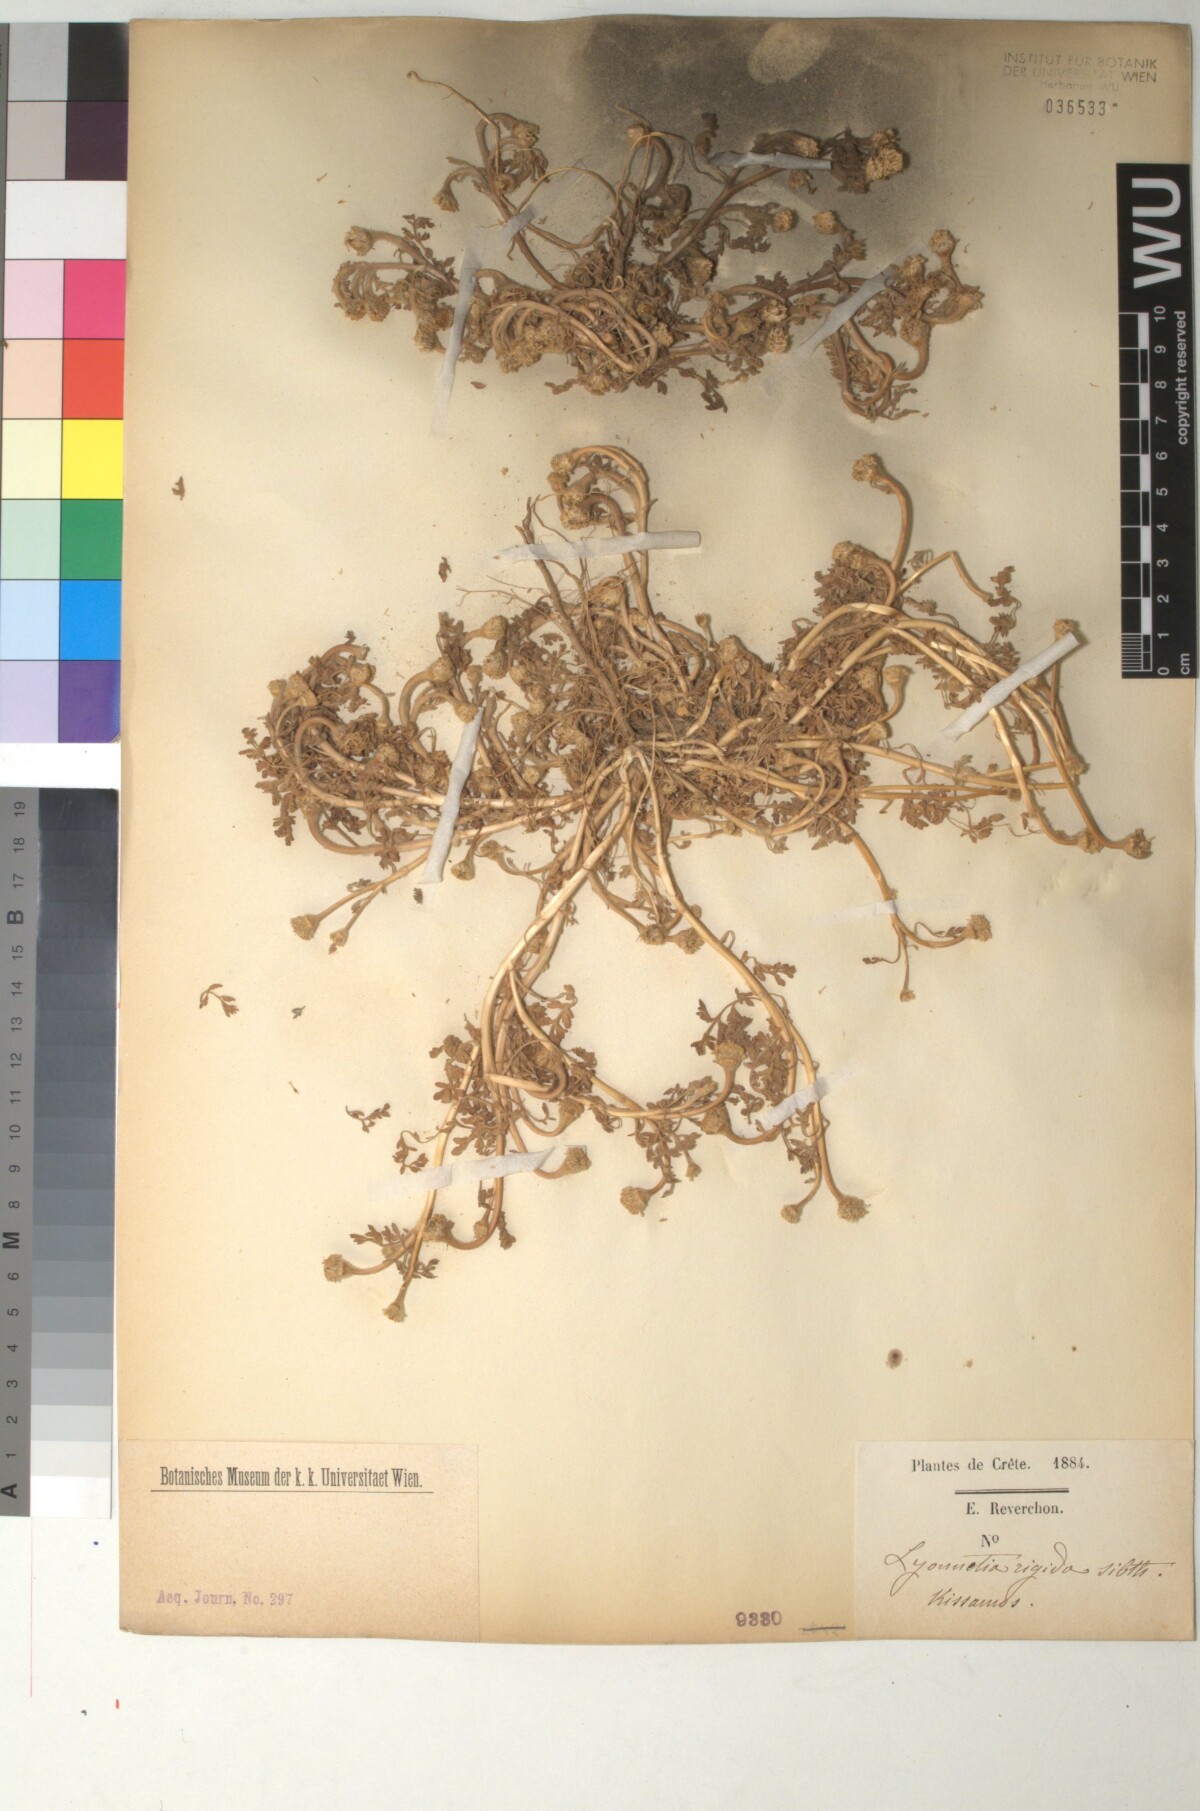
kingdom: Plantae
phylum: Tracheophyta
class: Magnoliopsida
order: Asterales
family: Asteraceae
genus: Anthemis
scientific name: Anthemis rigida
